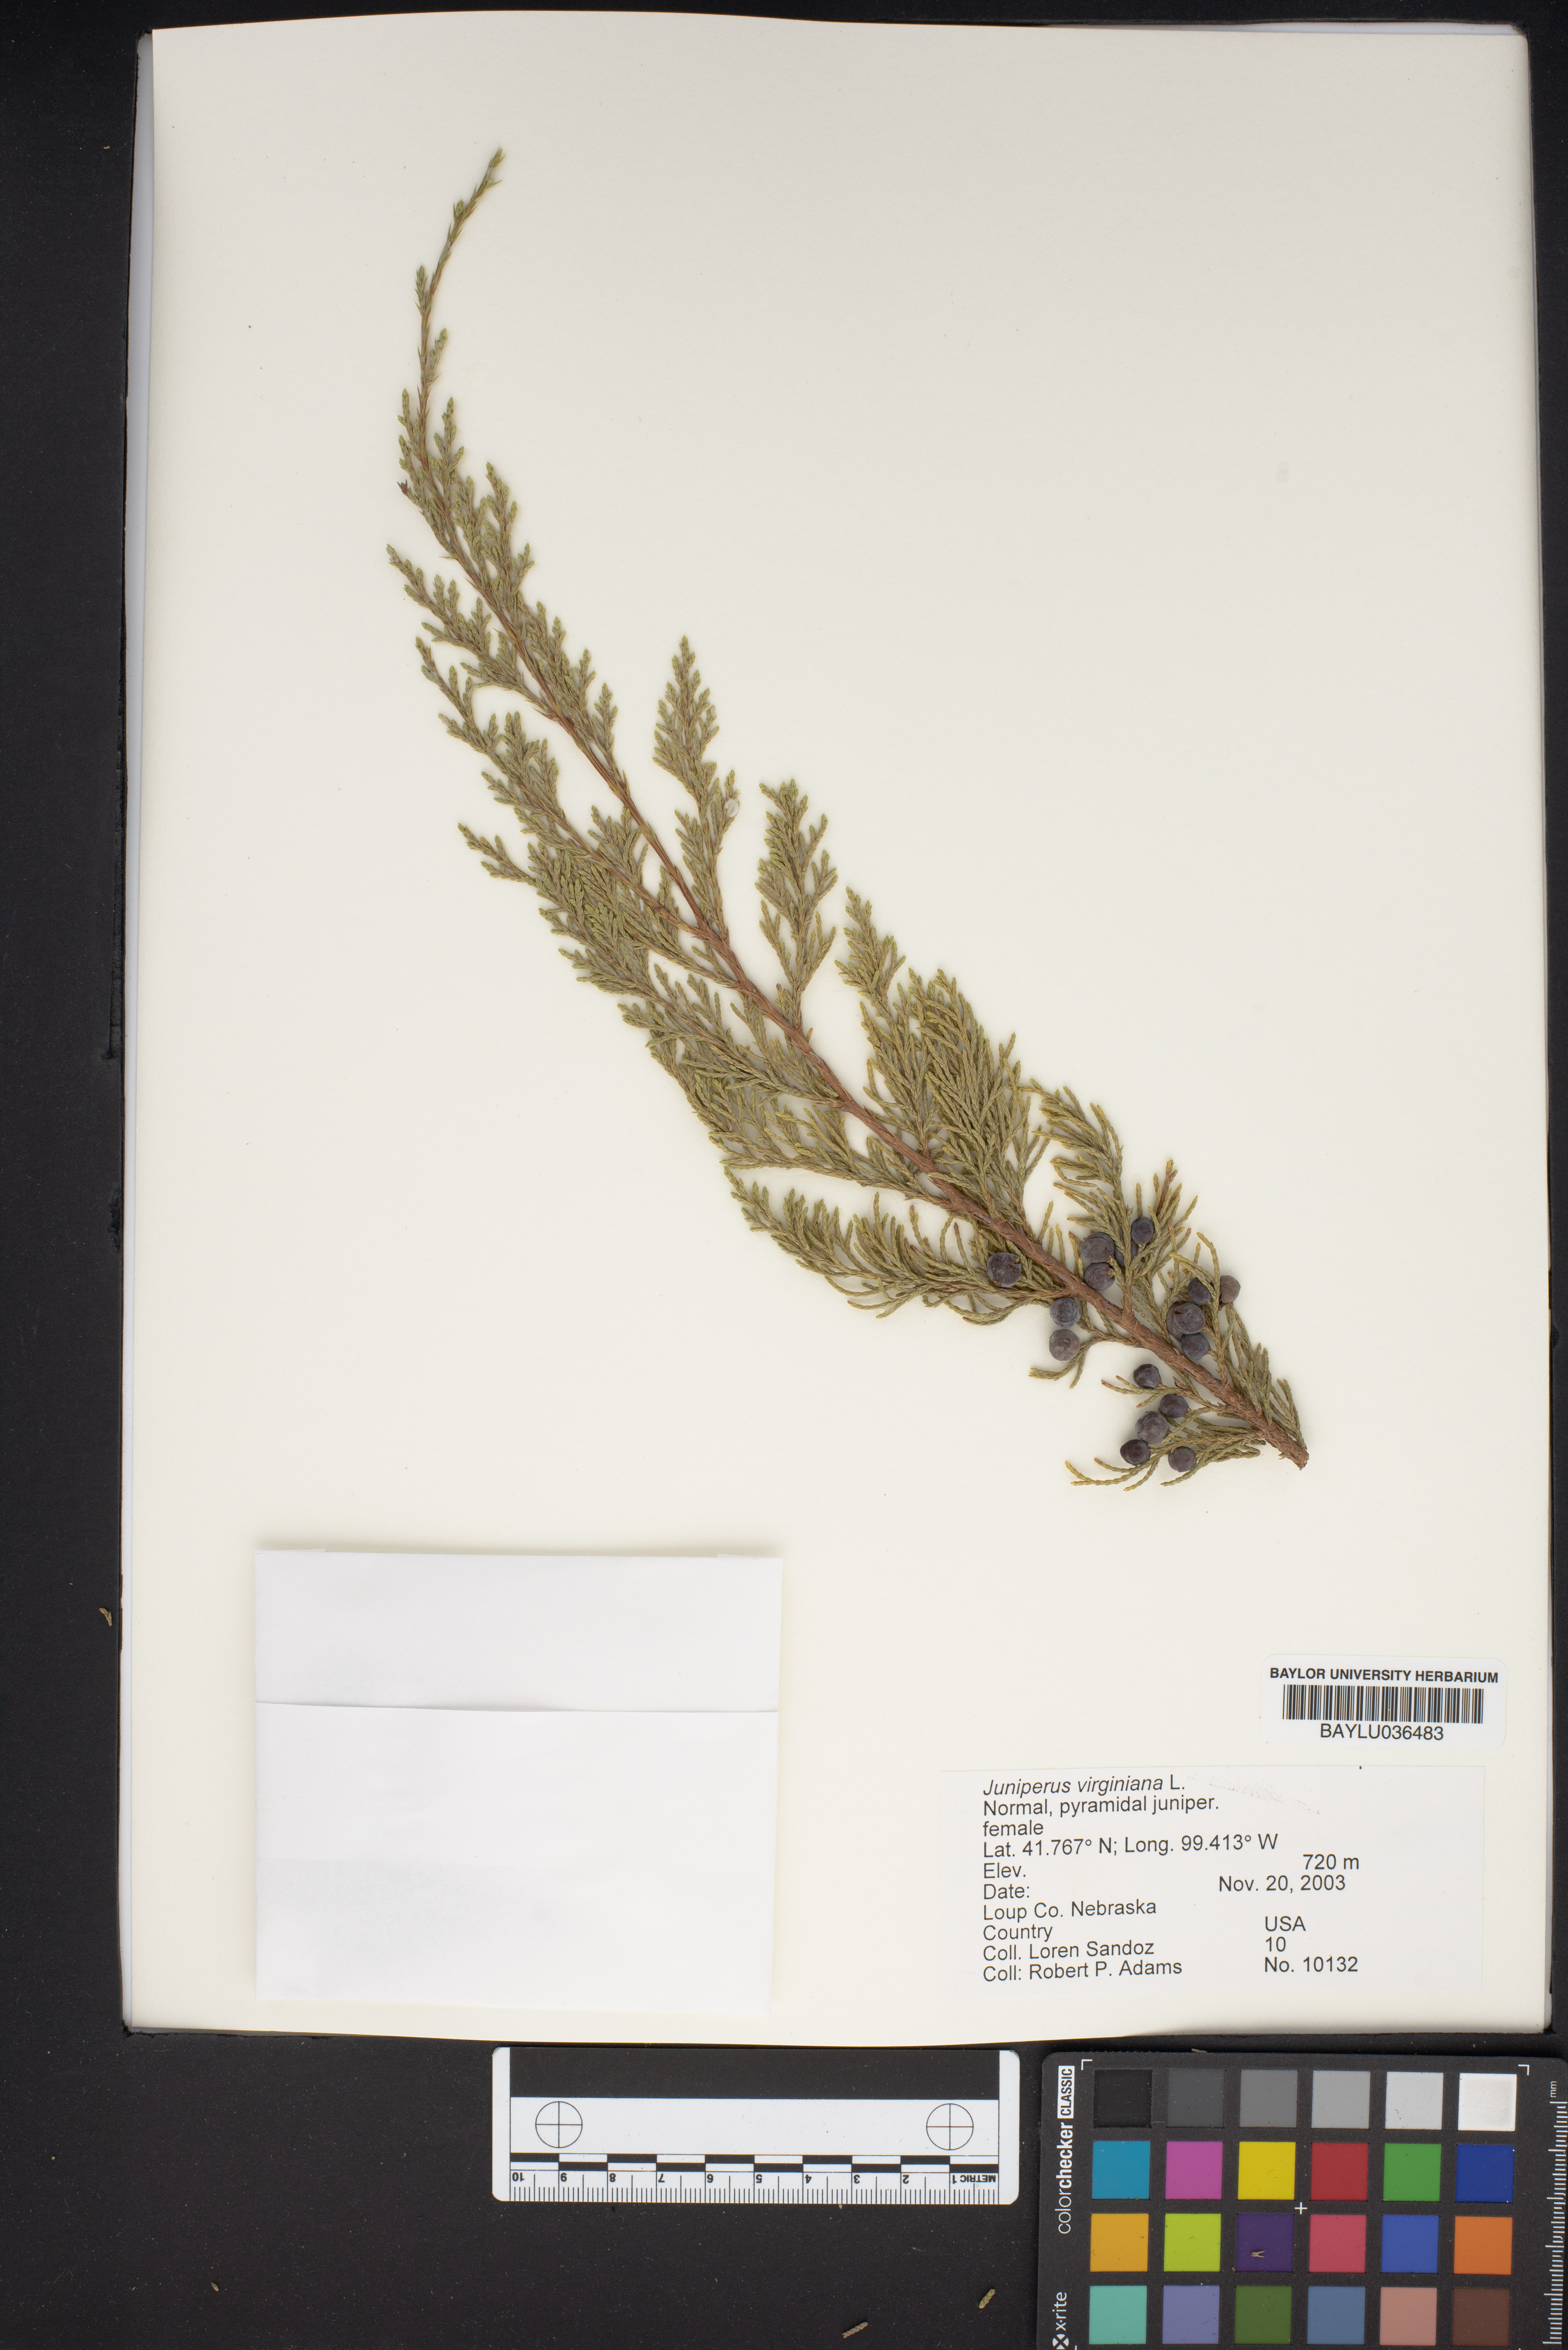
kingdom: Plantae
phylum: Tracheophyta
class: Pinopsida
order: Pinales
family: Cupressaceae
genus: Juniperus
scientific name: Juniperus virginiana
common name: Red juniper
